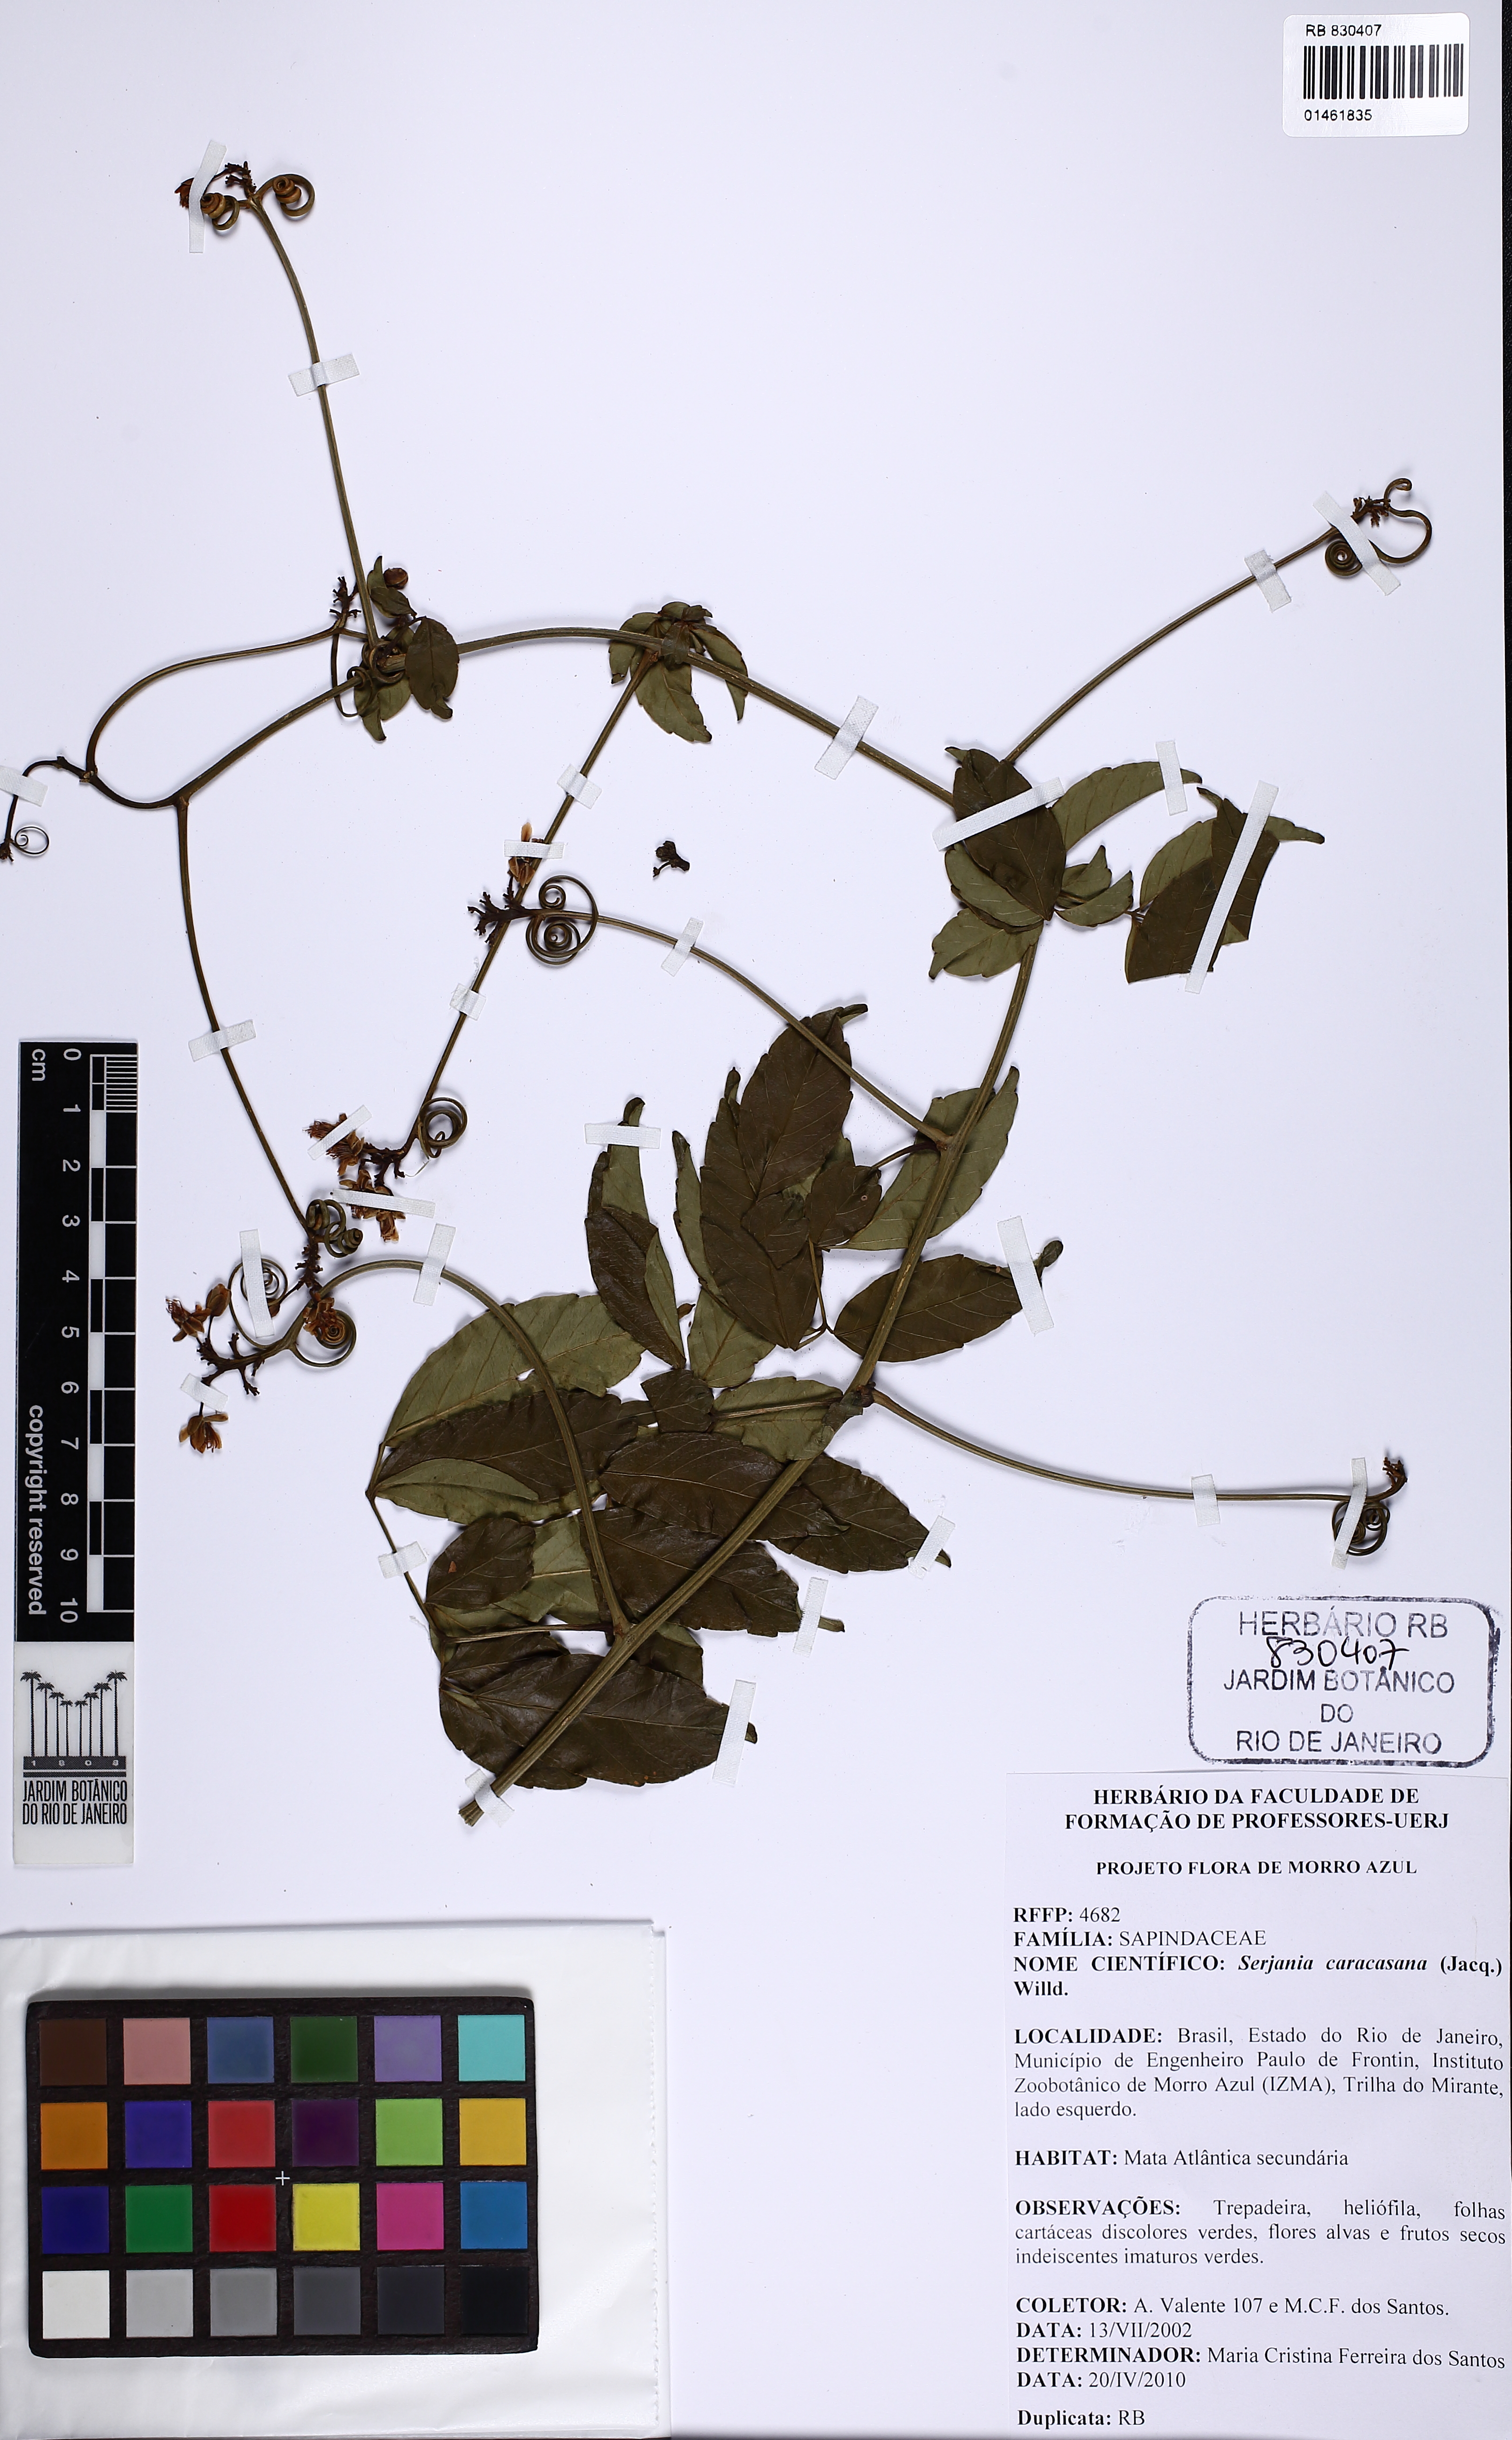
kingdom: Plantae
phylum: Tracheophyta
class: Magnoliopsida
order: Sapindales
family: Sapindaceae
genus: Serjania
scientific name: Serjania caracasana
